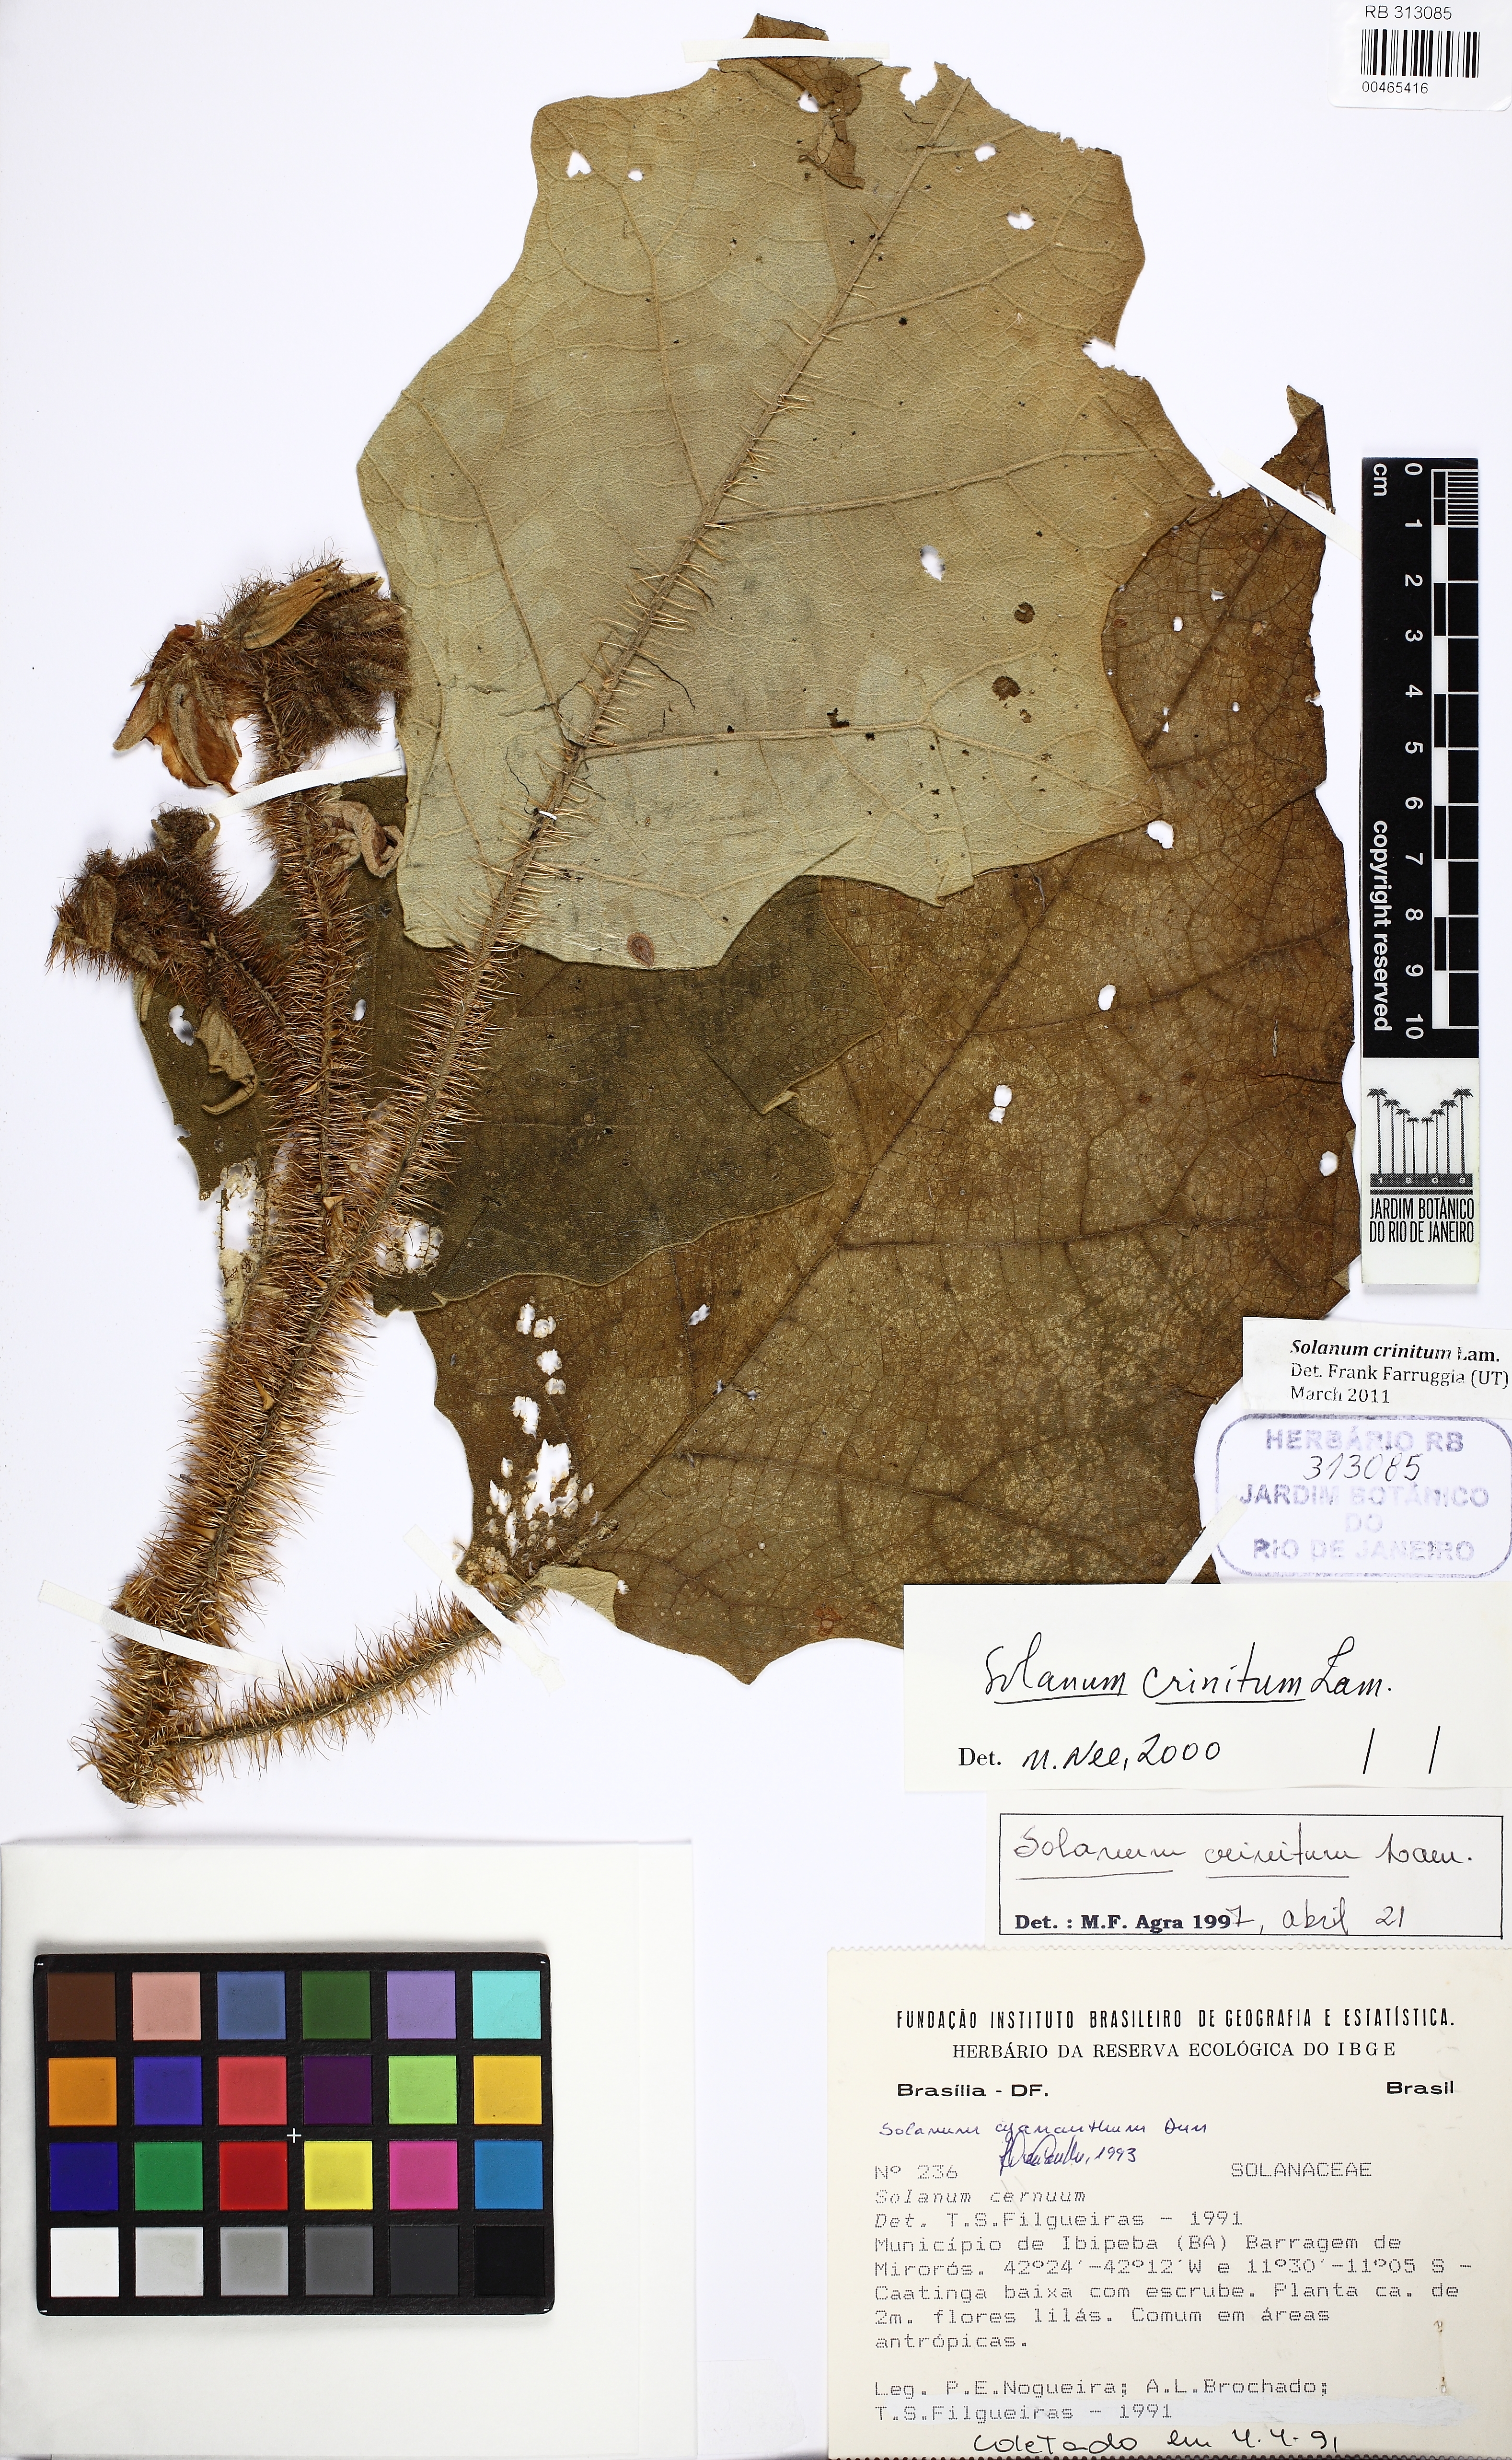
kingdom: Plantae
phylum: Tracheophyta
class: Magnoliopsida
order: Solanales
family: Solanaceae
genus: Solanum
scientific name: Solanum crinitum
